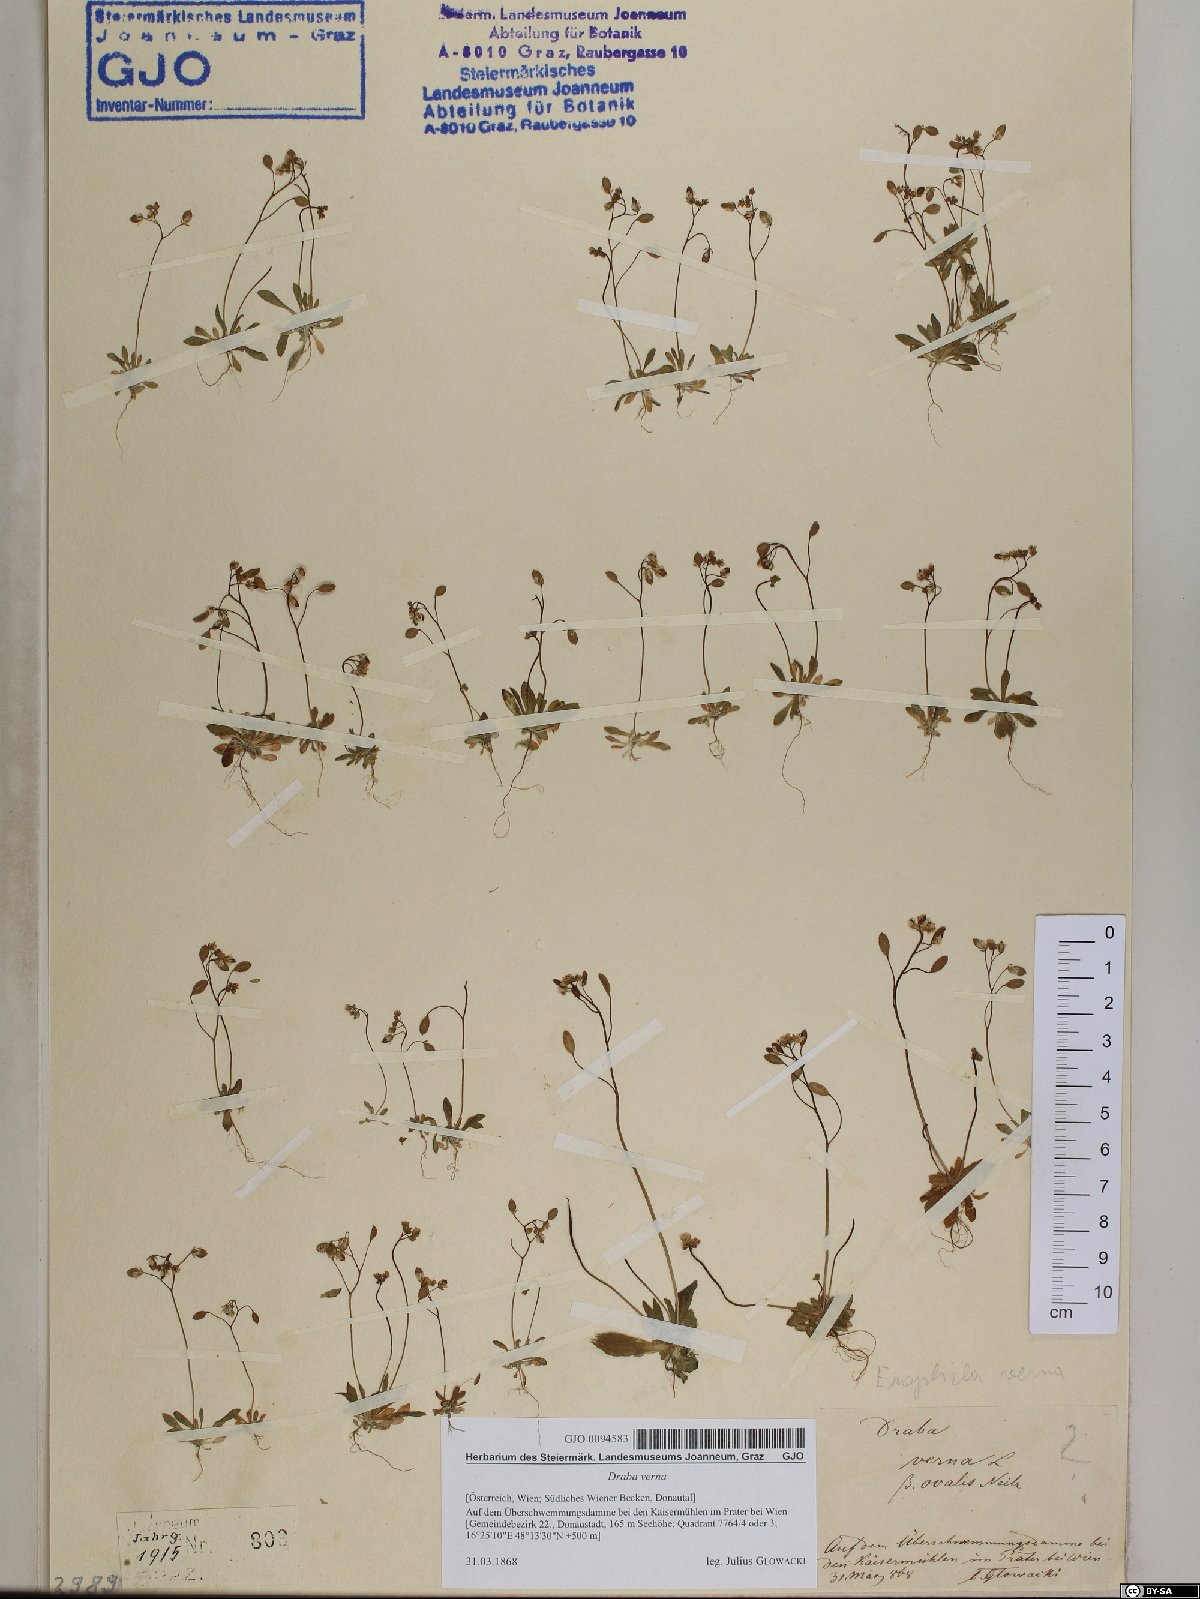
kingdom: Plantae
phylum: Tracheophyta
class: Magnoliopsida
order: Brassicales
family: Brassicaceae
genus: Draba
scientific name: Draba verna
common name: Spring draba
